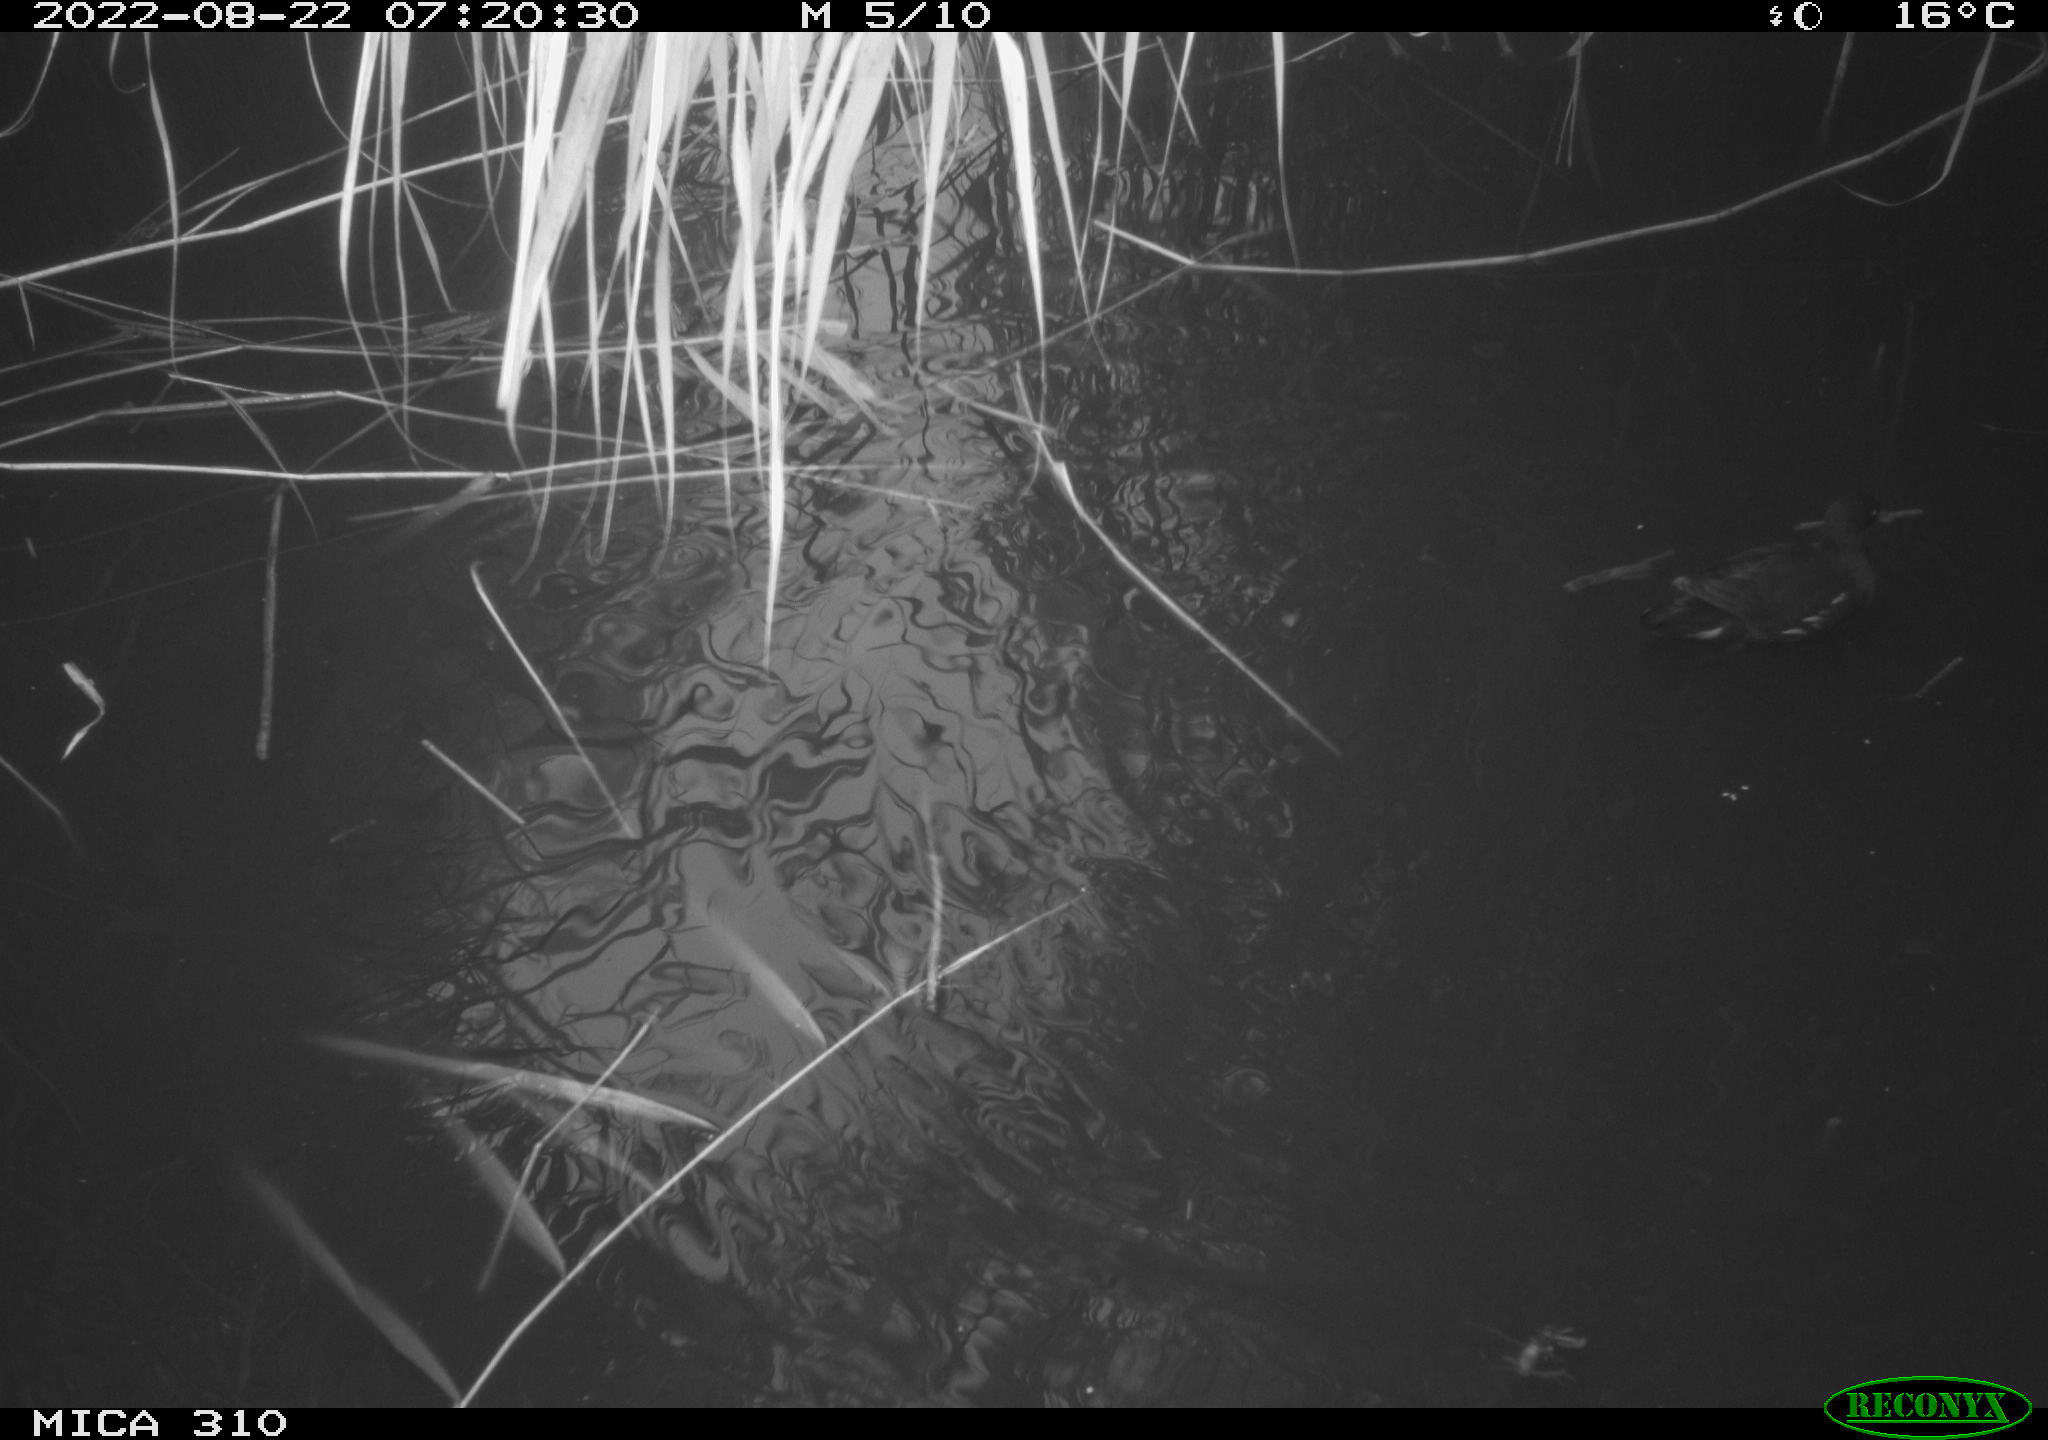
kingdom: Animalia
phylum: Chordata
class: Aves
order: Gruiformes
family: Rallidae
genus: Gallinula
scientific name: Gallinula chloropus
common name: Common moorhen
